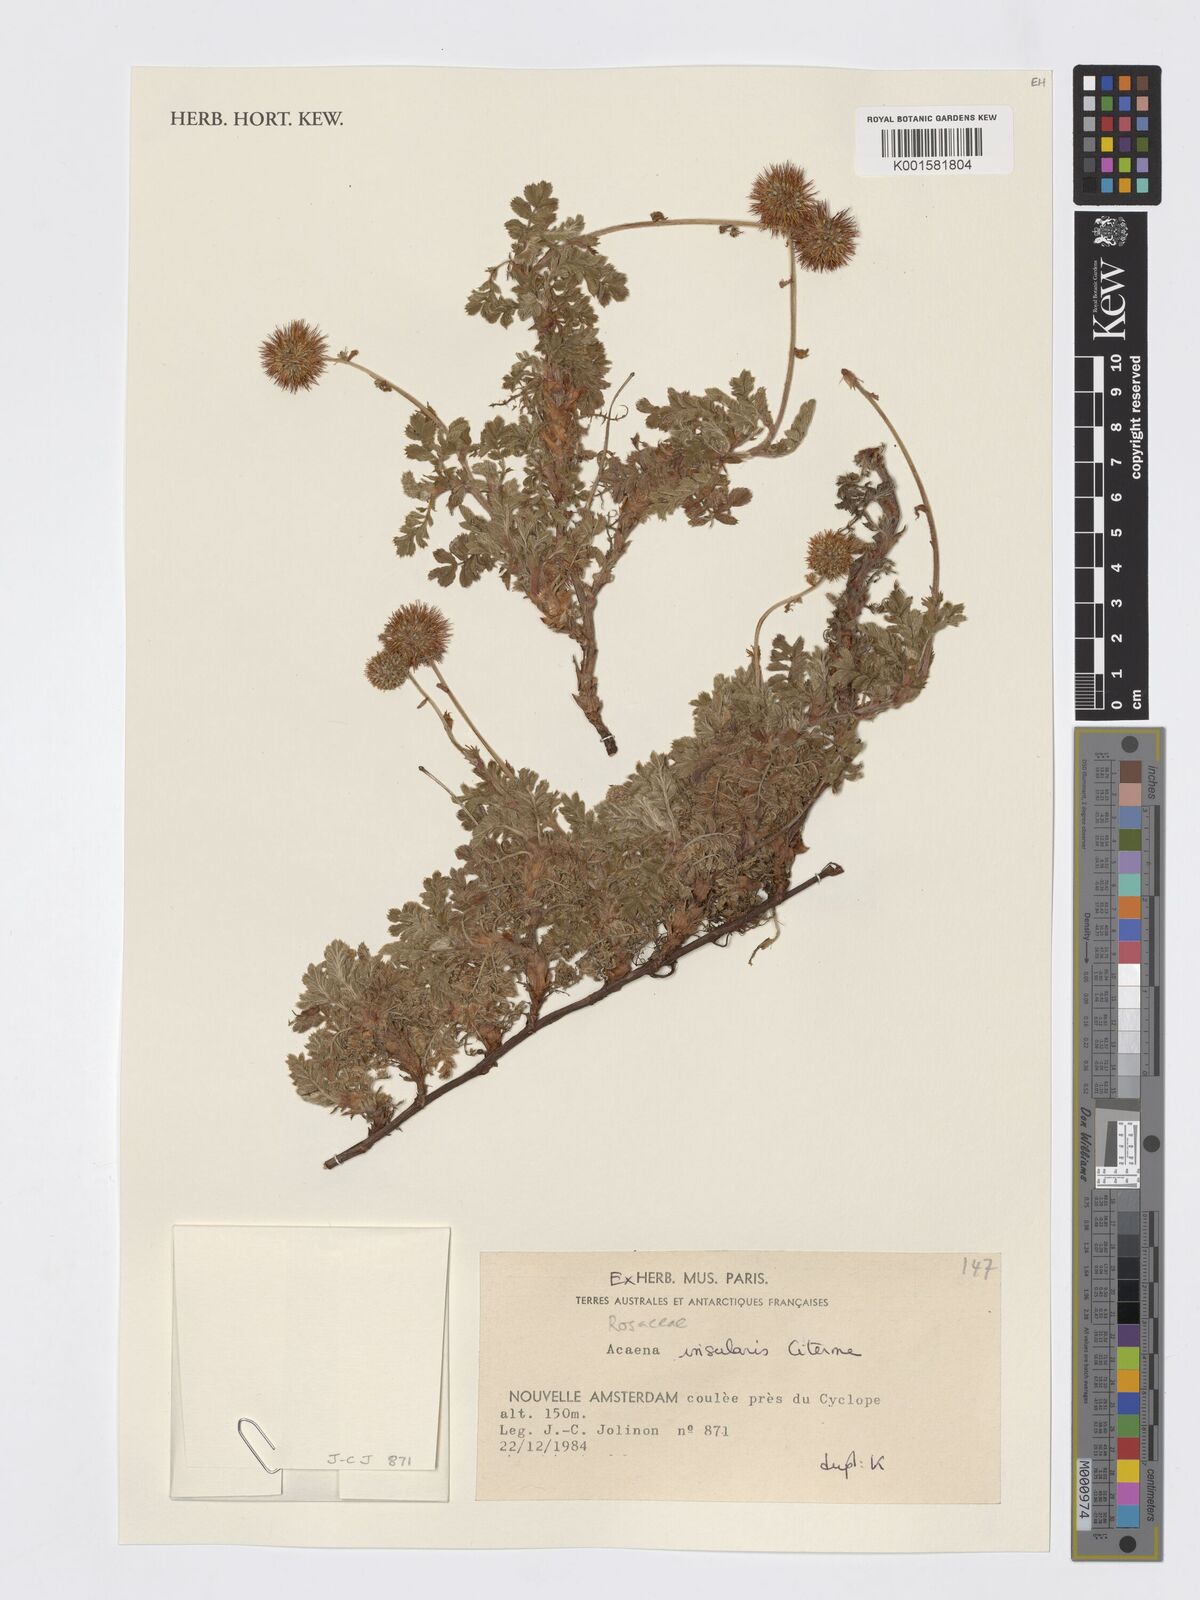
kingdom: Plantae
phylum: Tracheophyta
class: Magnoliopsida
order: Rosales
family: Rosaceae
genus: Acaena
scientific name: Acaena insularis
